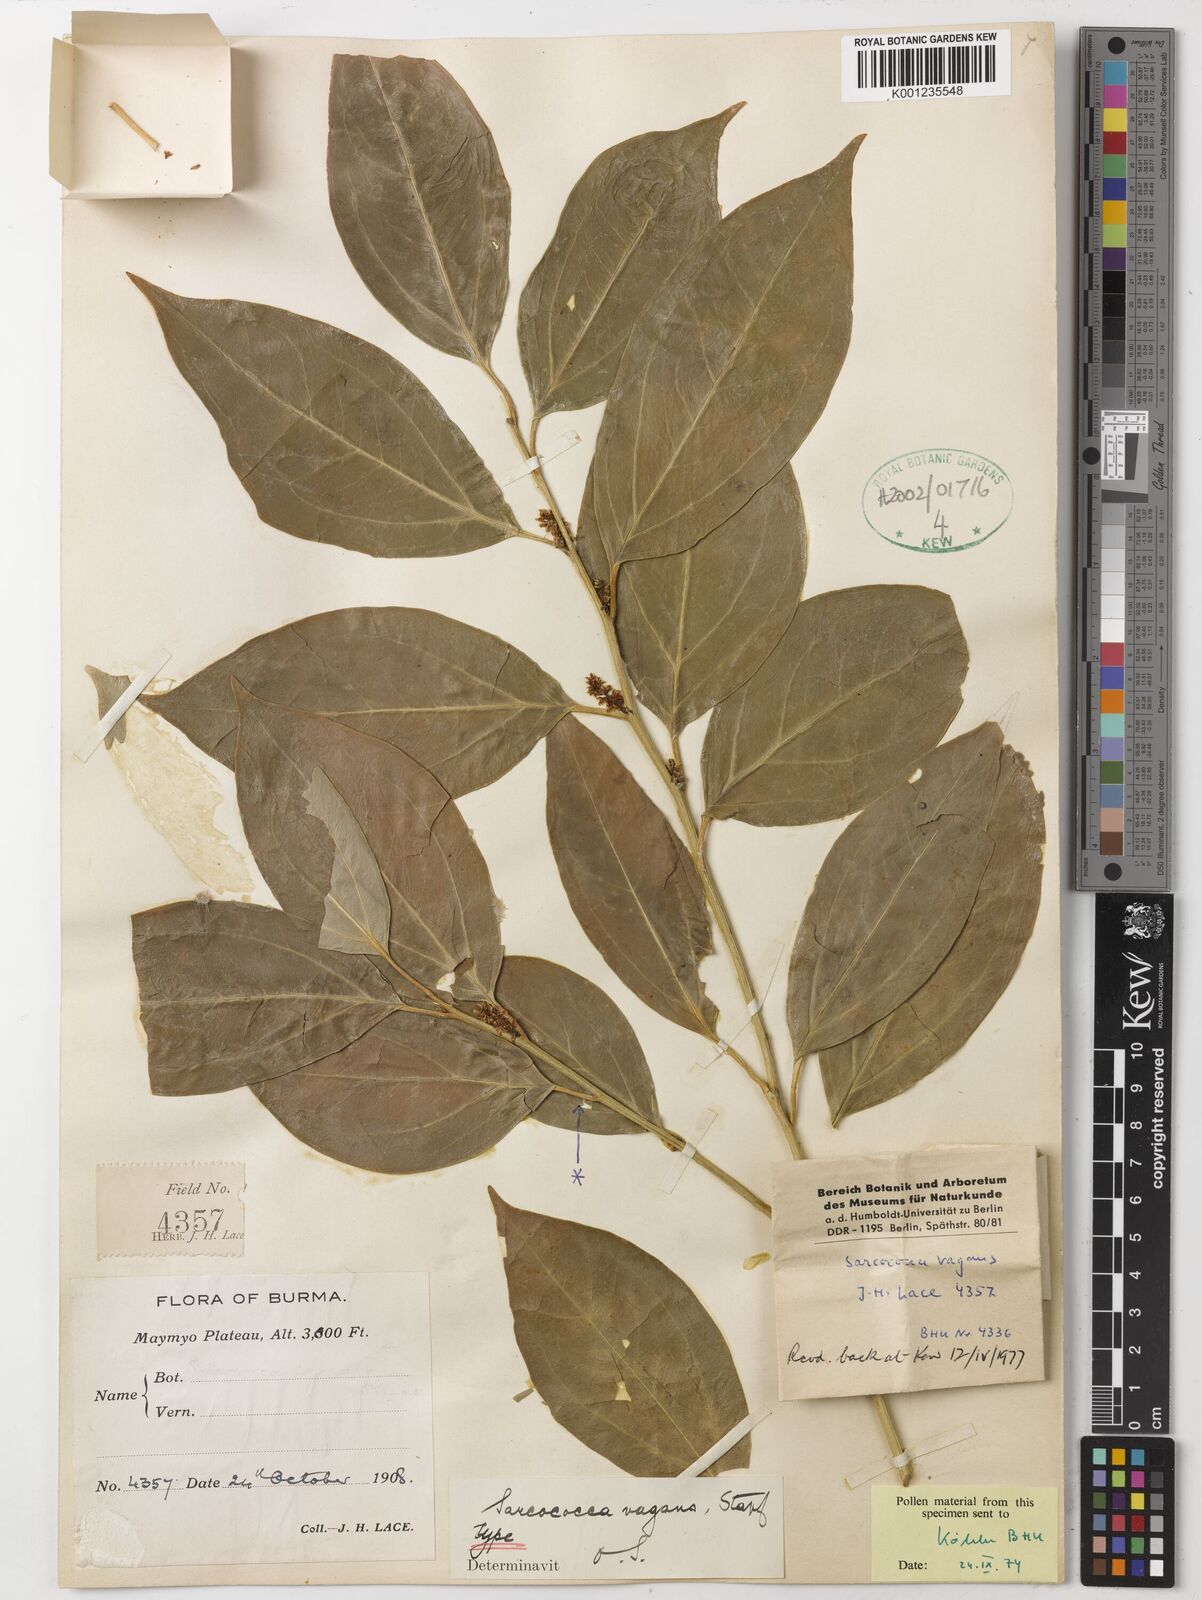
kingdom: Plantae
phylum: Tracheophyta
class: Magnoliopsida
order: Buxales
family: Buxaceae
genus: Sarcococca
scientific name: Sarcococca coriacea
